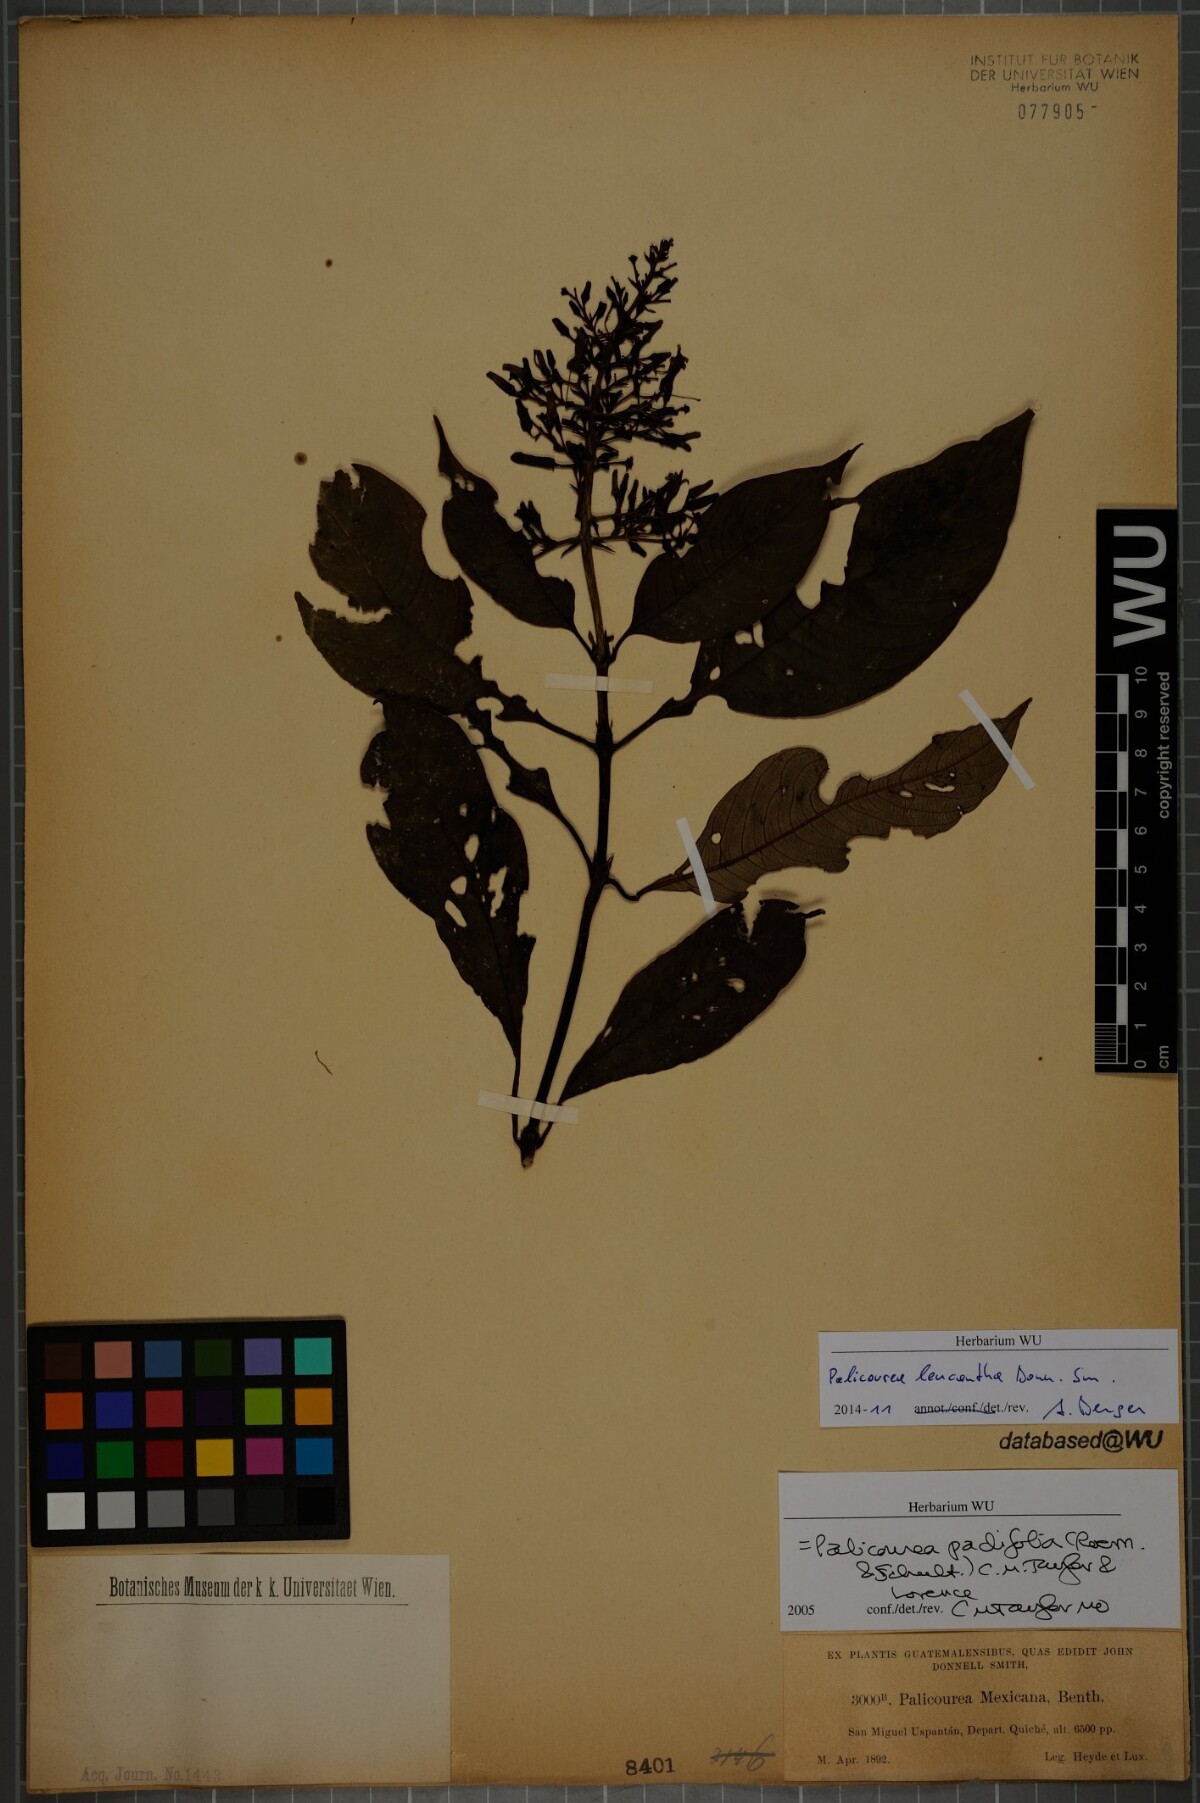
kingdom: Plantae
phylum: Tracheophyta
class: Magnoliopsida
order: Gentianales
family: Rubiaceae
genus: Palicourea
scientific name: Palicourea leucantha
